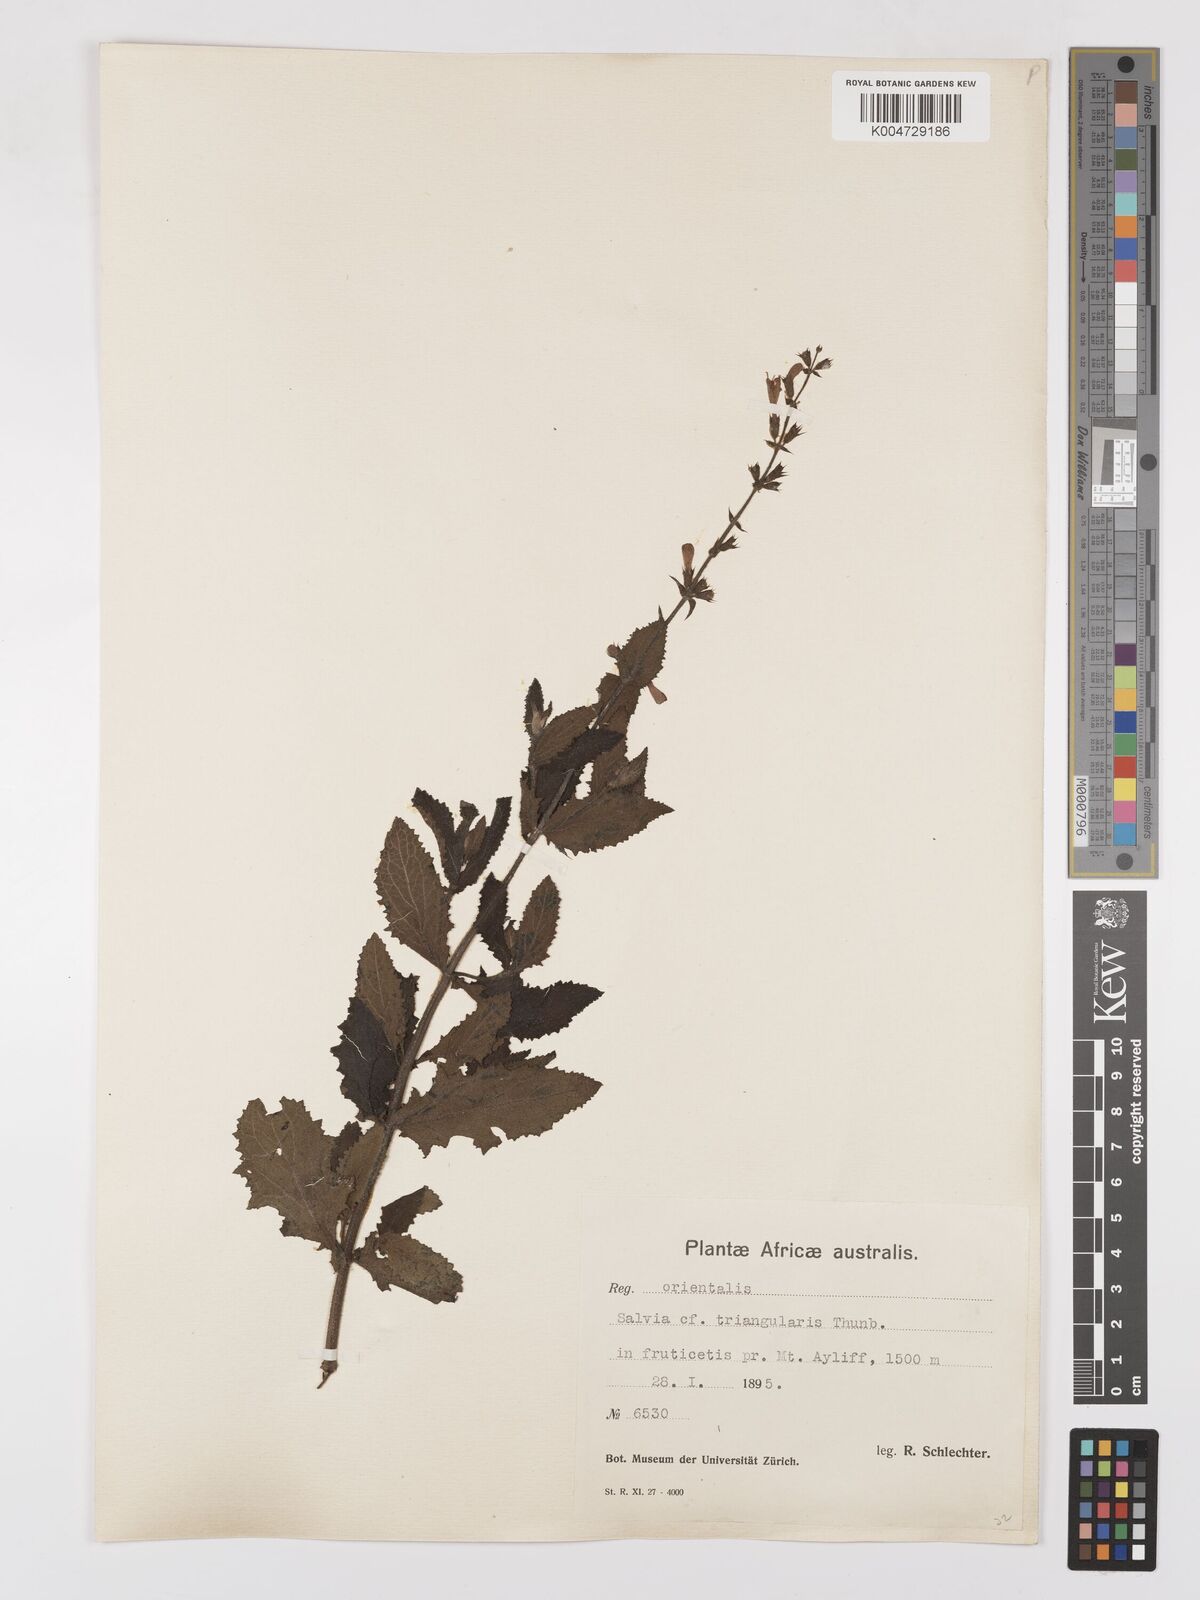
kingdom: Plantae
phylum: Tracheophyta
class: Magnoliopsida
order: Lamiales
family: Lamiaceae
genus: Salvia
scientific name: Salvia triangularis
